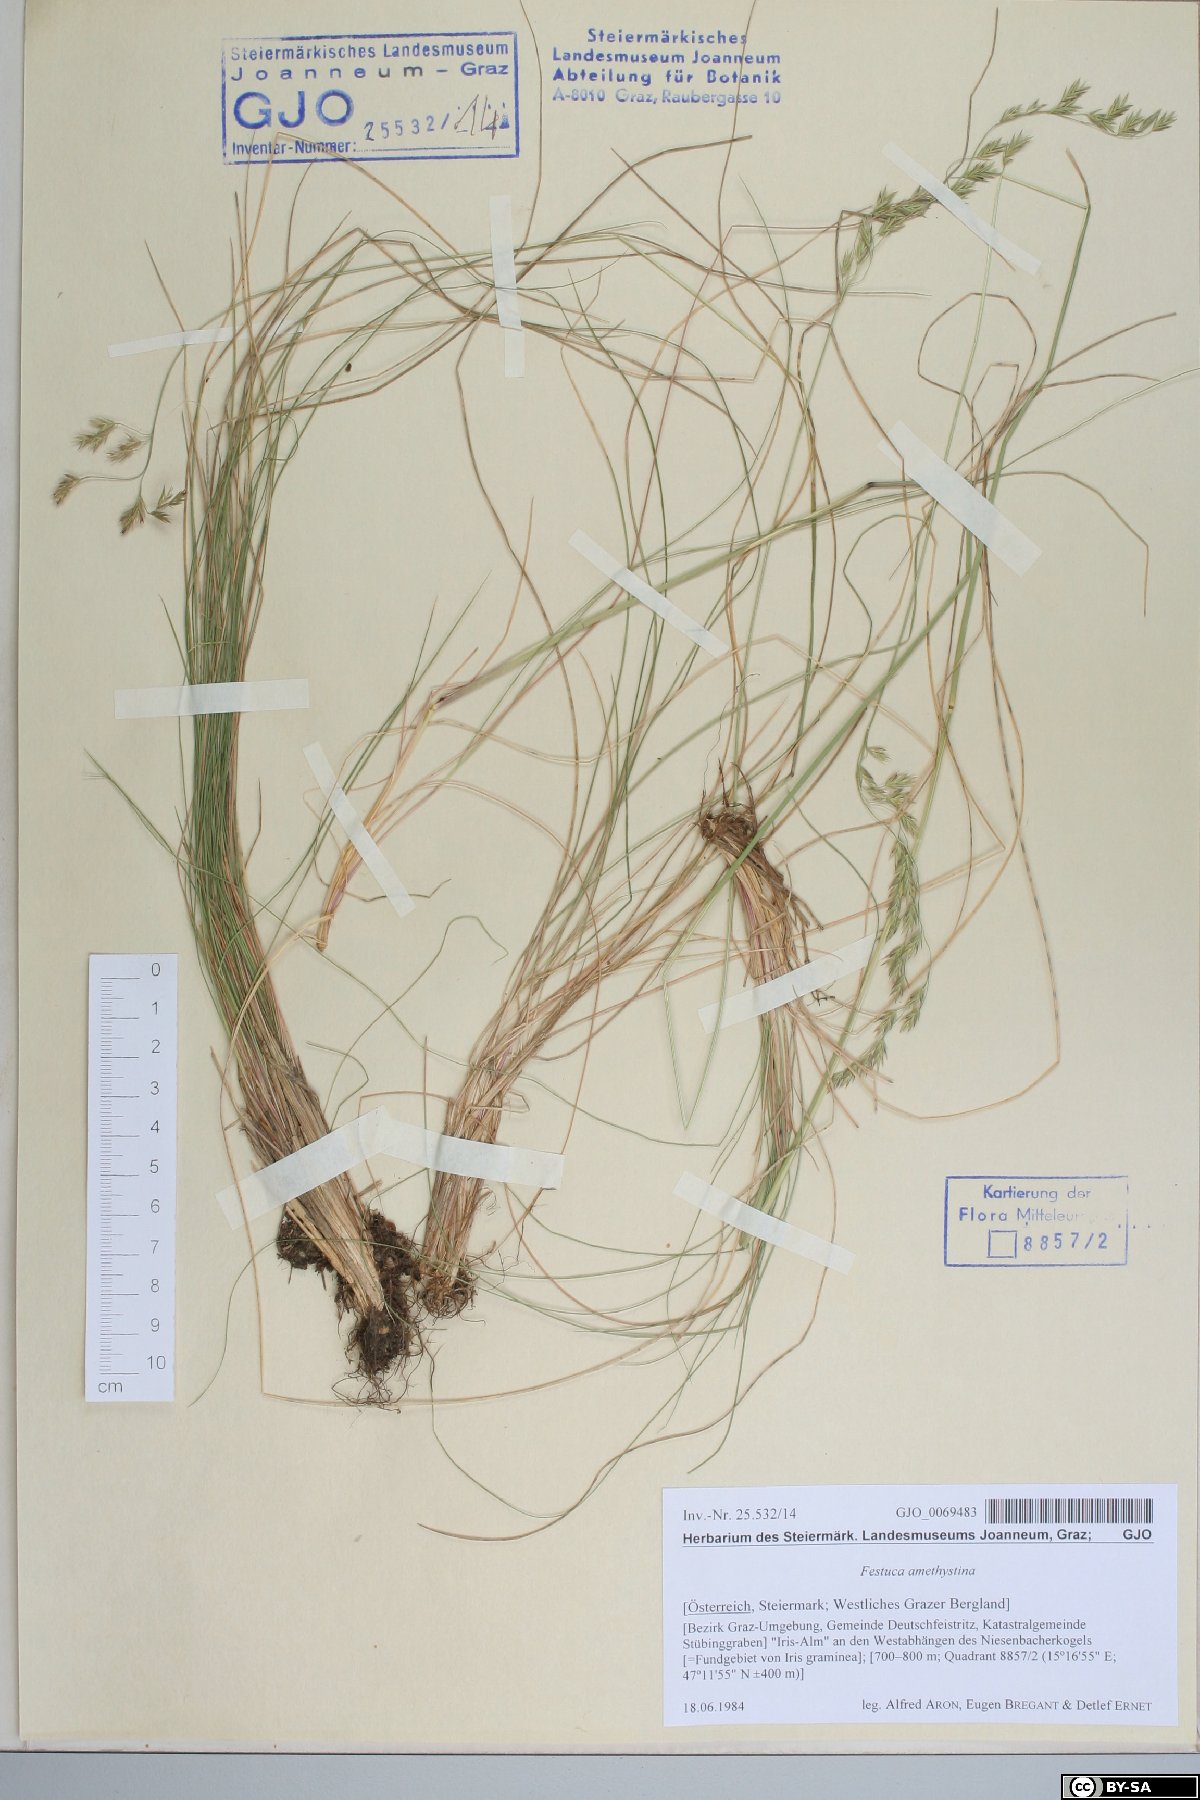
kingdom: Plantae
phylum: Tracheophyta
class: Liliopsida
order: Poales
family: Poaceae
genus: Festuca
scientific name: Festuca amethystina
